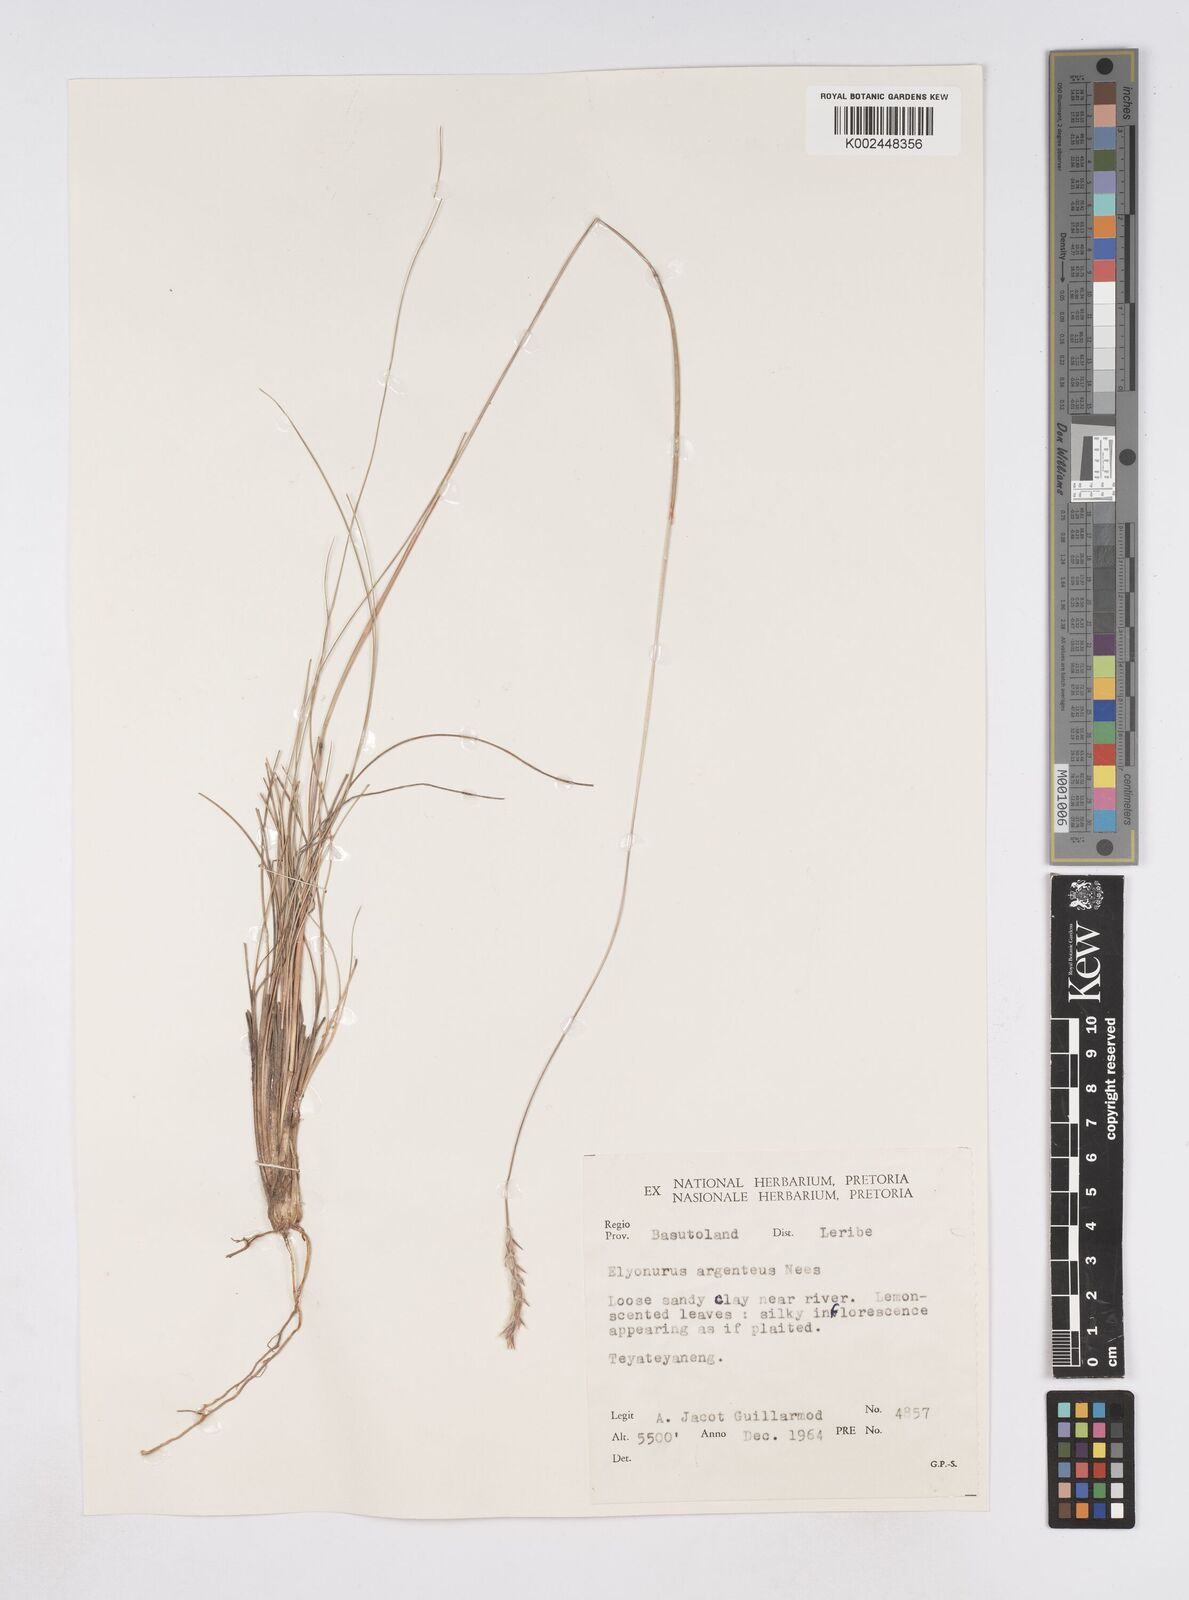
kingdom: Plantae
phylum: Tracheophyta
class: Liliopsida
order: Poales
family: Poaceae
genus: Elionurus
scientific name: Elionurus muticus
